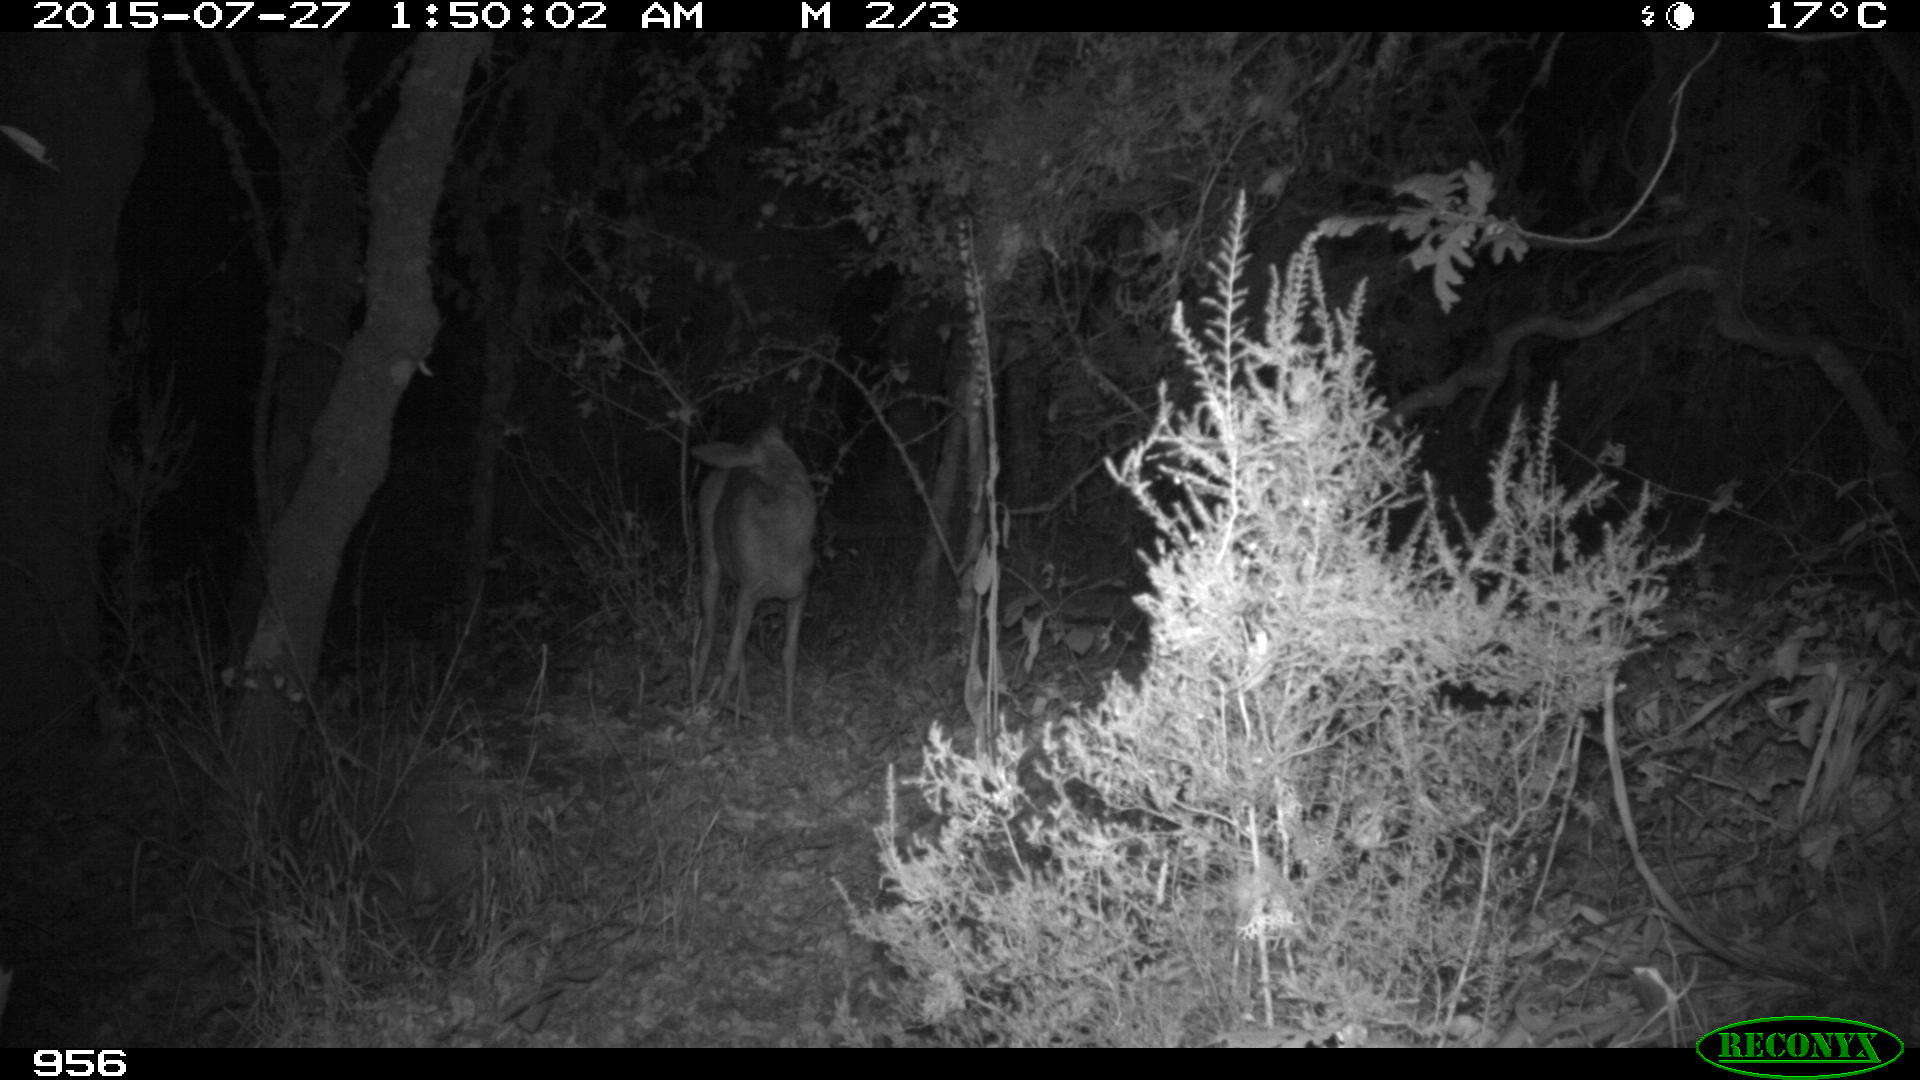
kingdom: Animalia
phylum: Chordata
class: Mammalia
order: Artiodactyla
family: Cervidae
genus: Capreolus
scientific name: Capreolus capreolus
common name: Western roe deer
